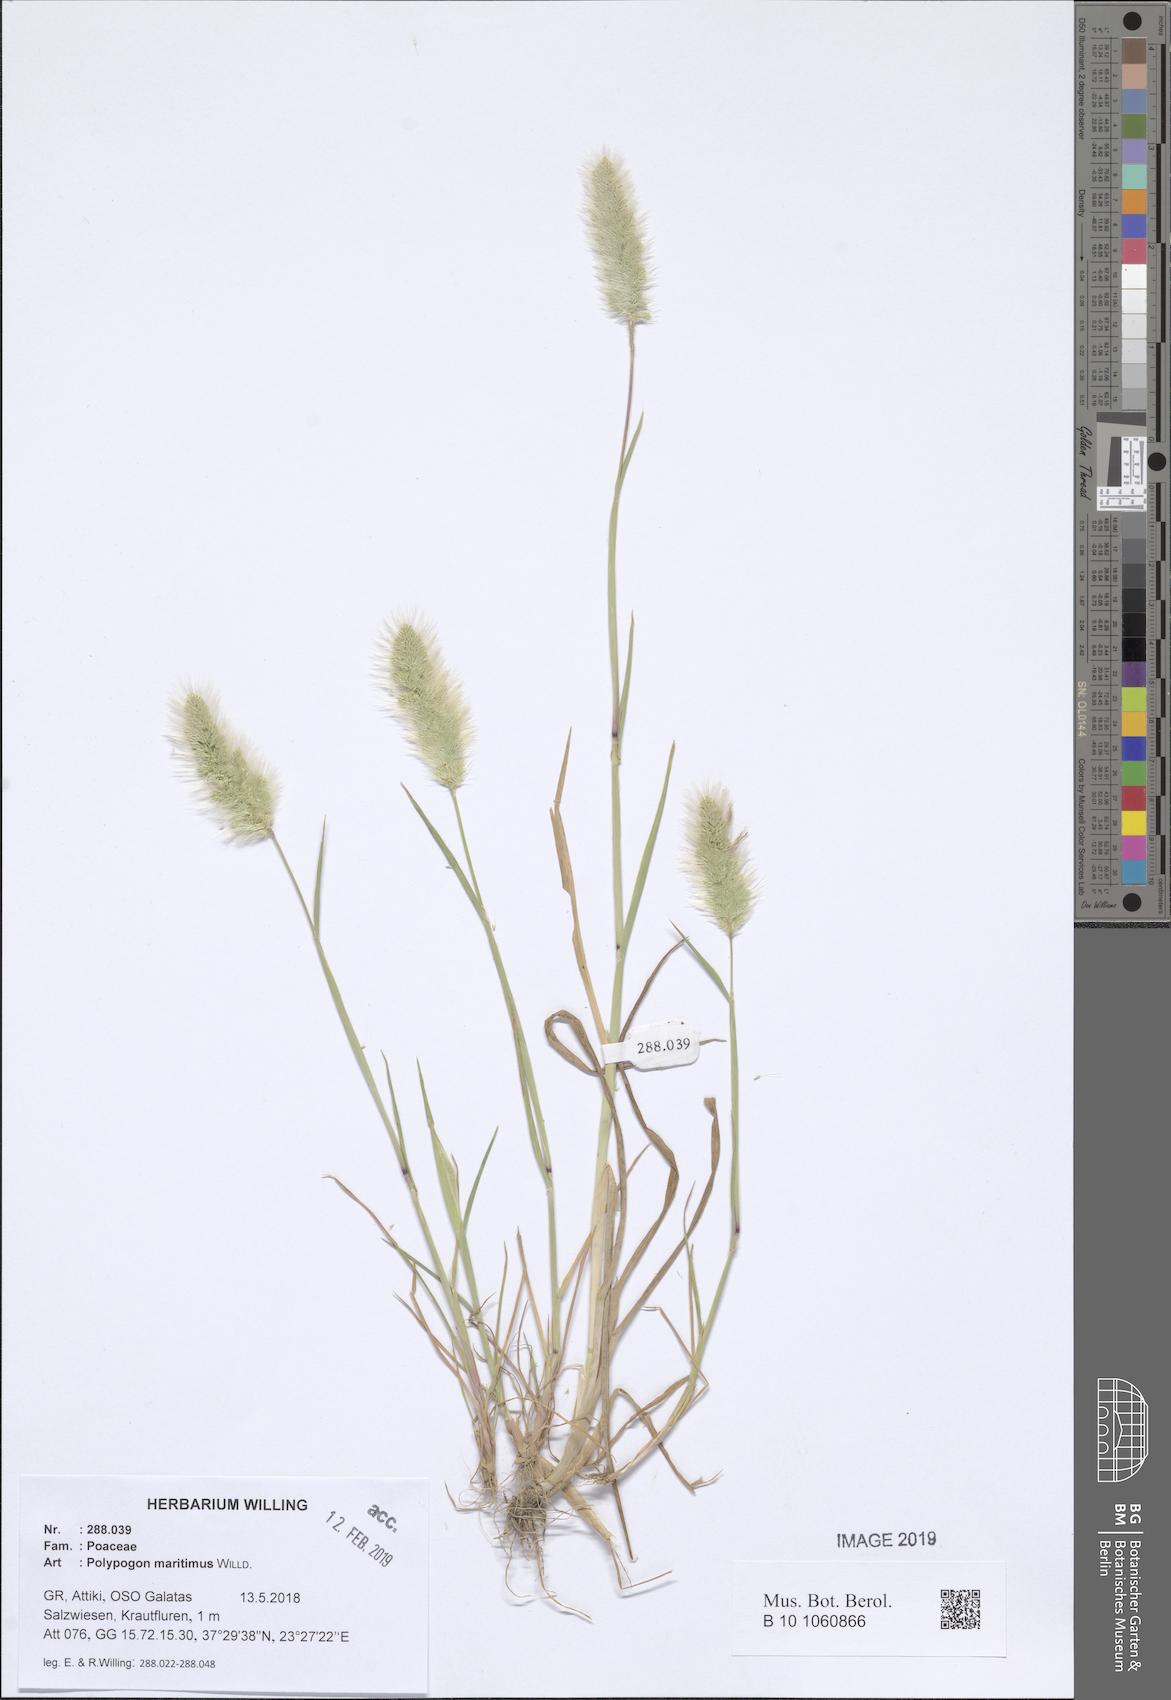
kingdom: Plantae
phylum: Tracheophyta
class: Liliopsida
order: Poales
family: Poaceae
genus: Polypogon
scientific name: Polypogon maritimus
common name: Mediterranean rabbitsfoot grass
